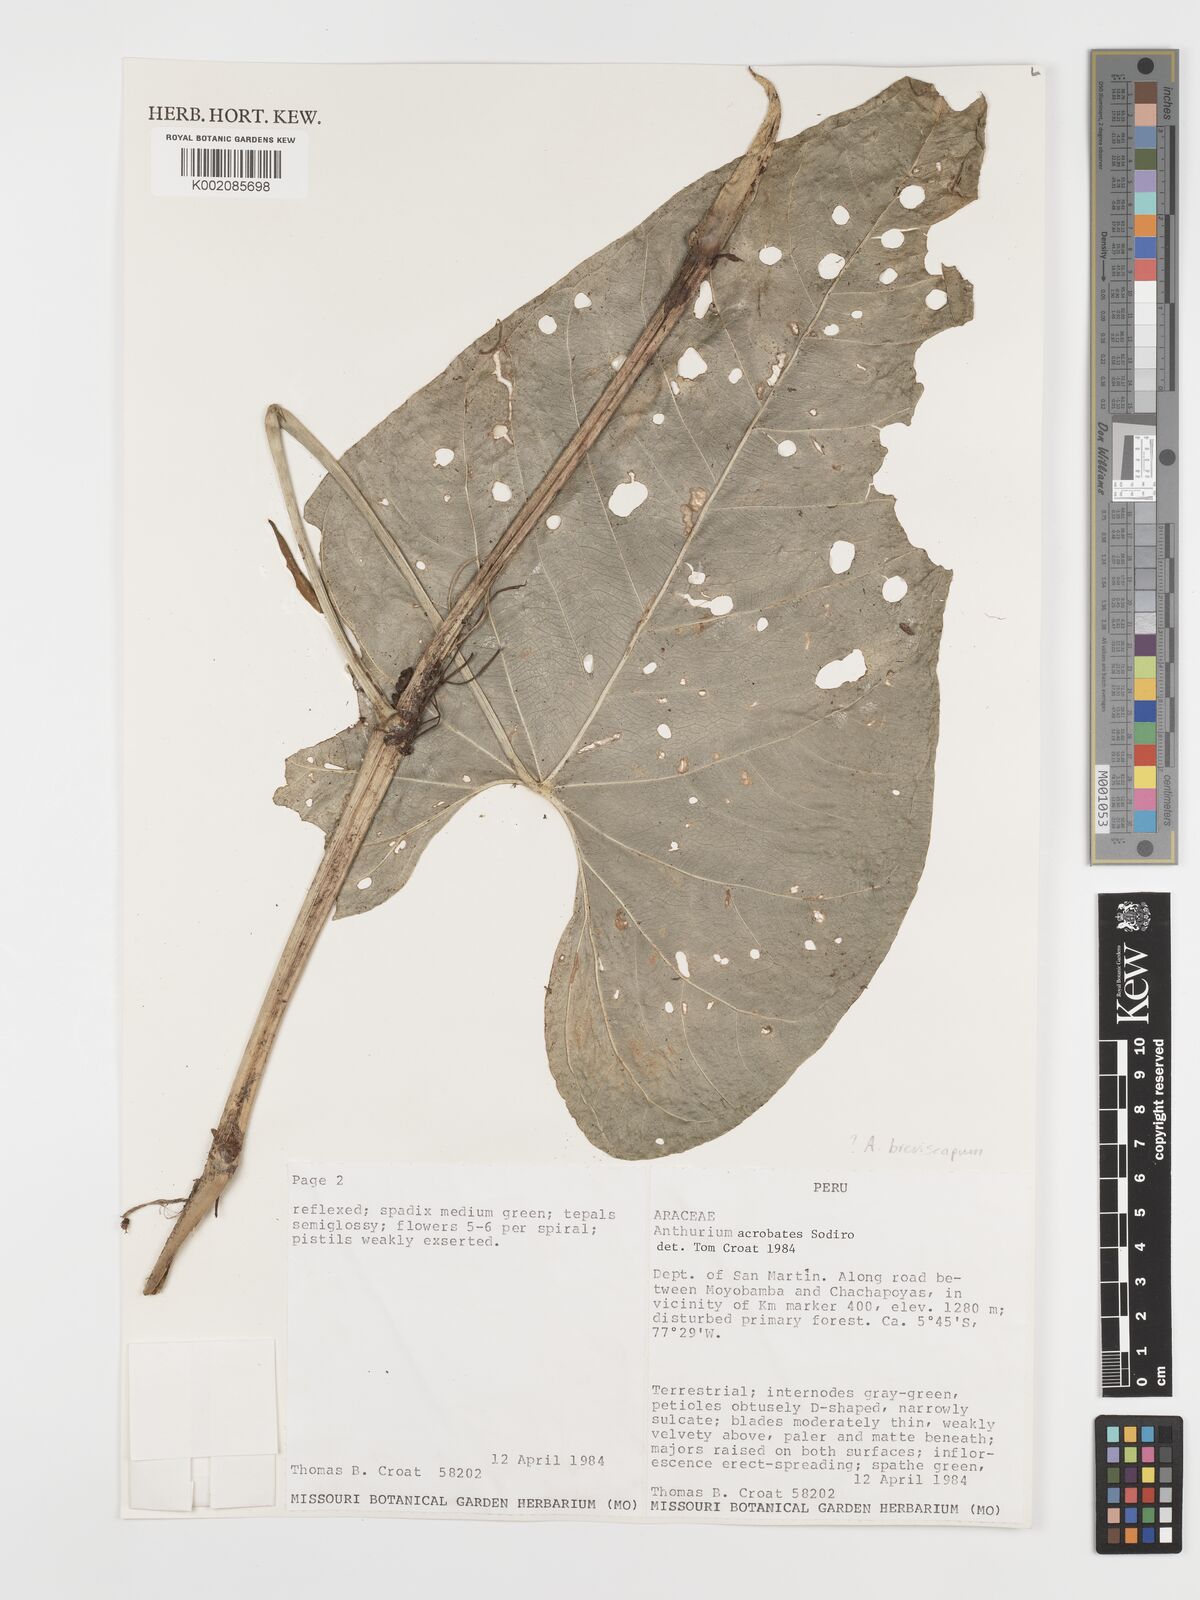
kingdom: Plantae
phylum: Tracheophyta
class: Liliopsida
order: Alismatales
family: Araceae
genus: Anthurium
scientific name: Anthurium breviscapum
